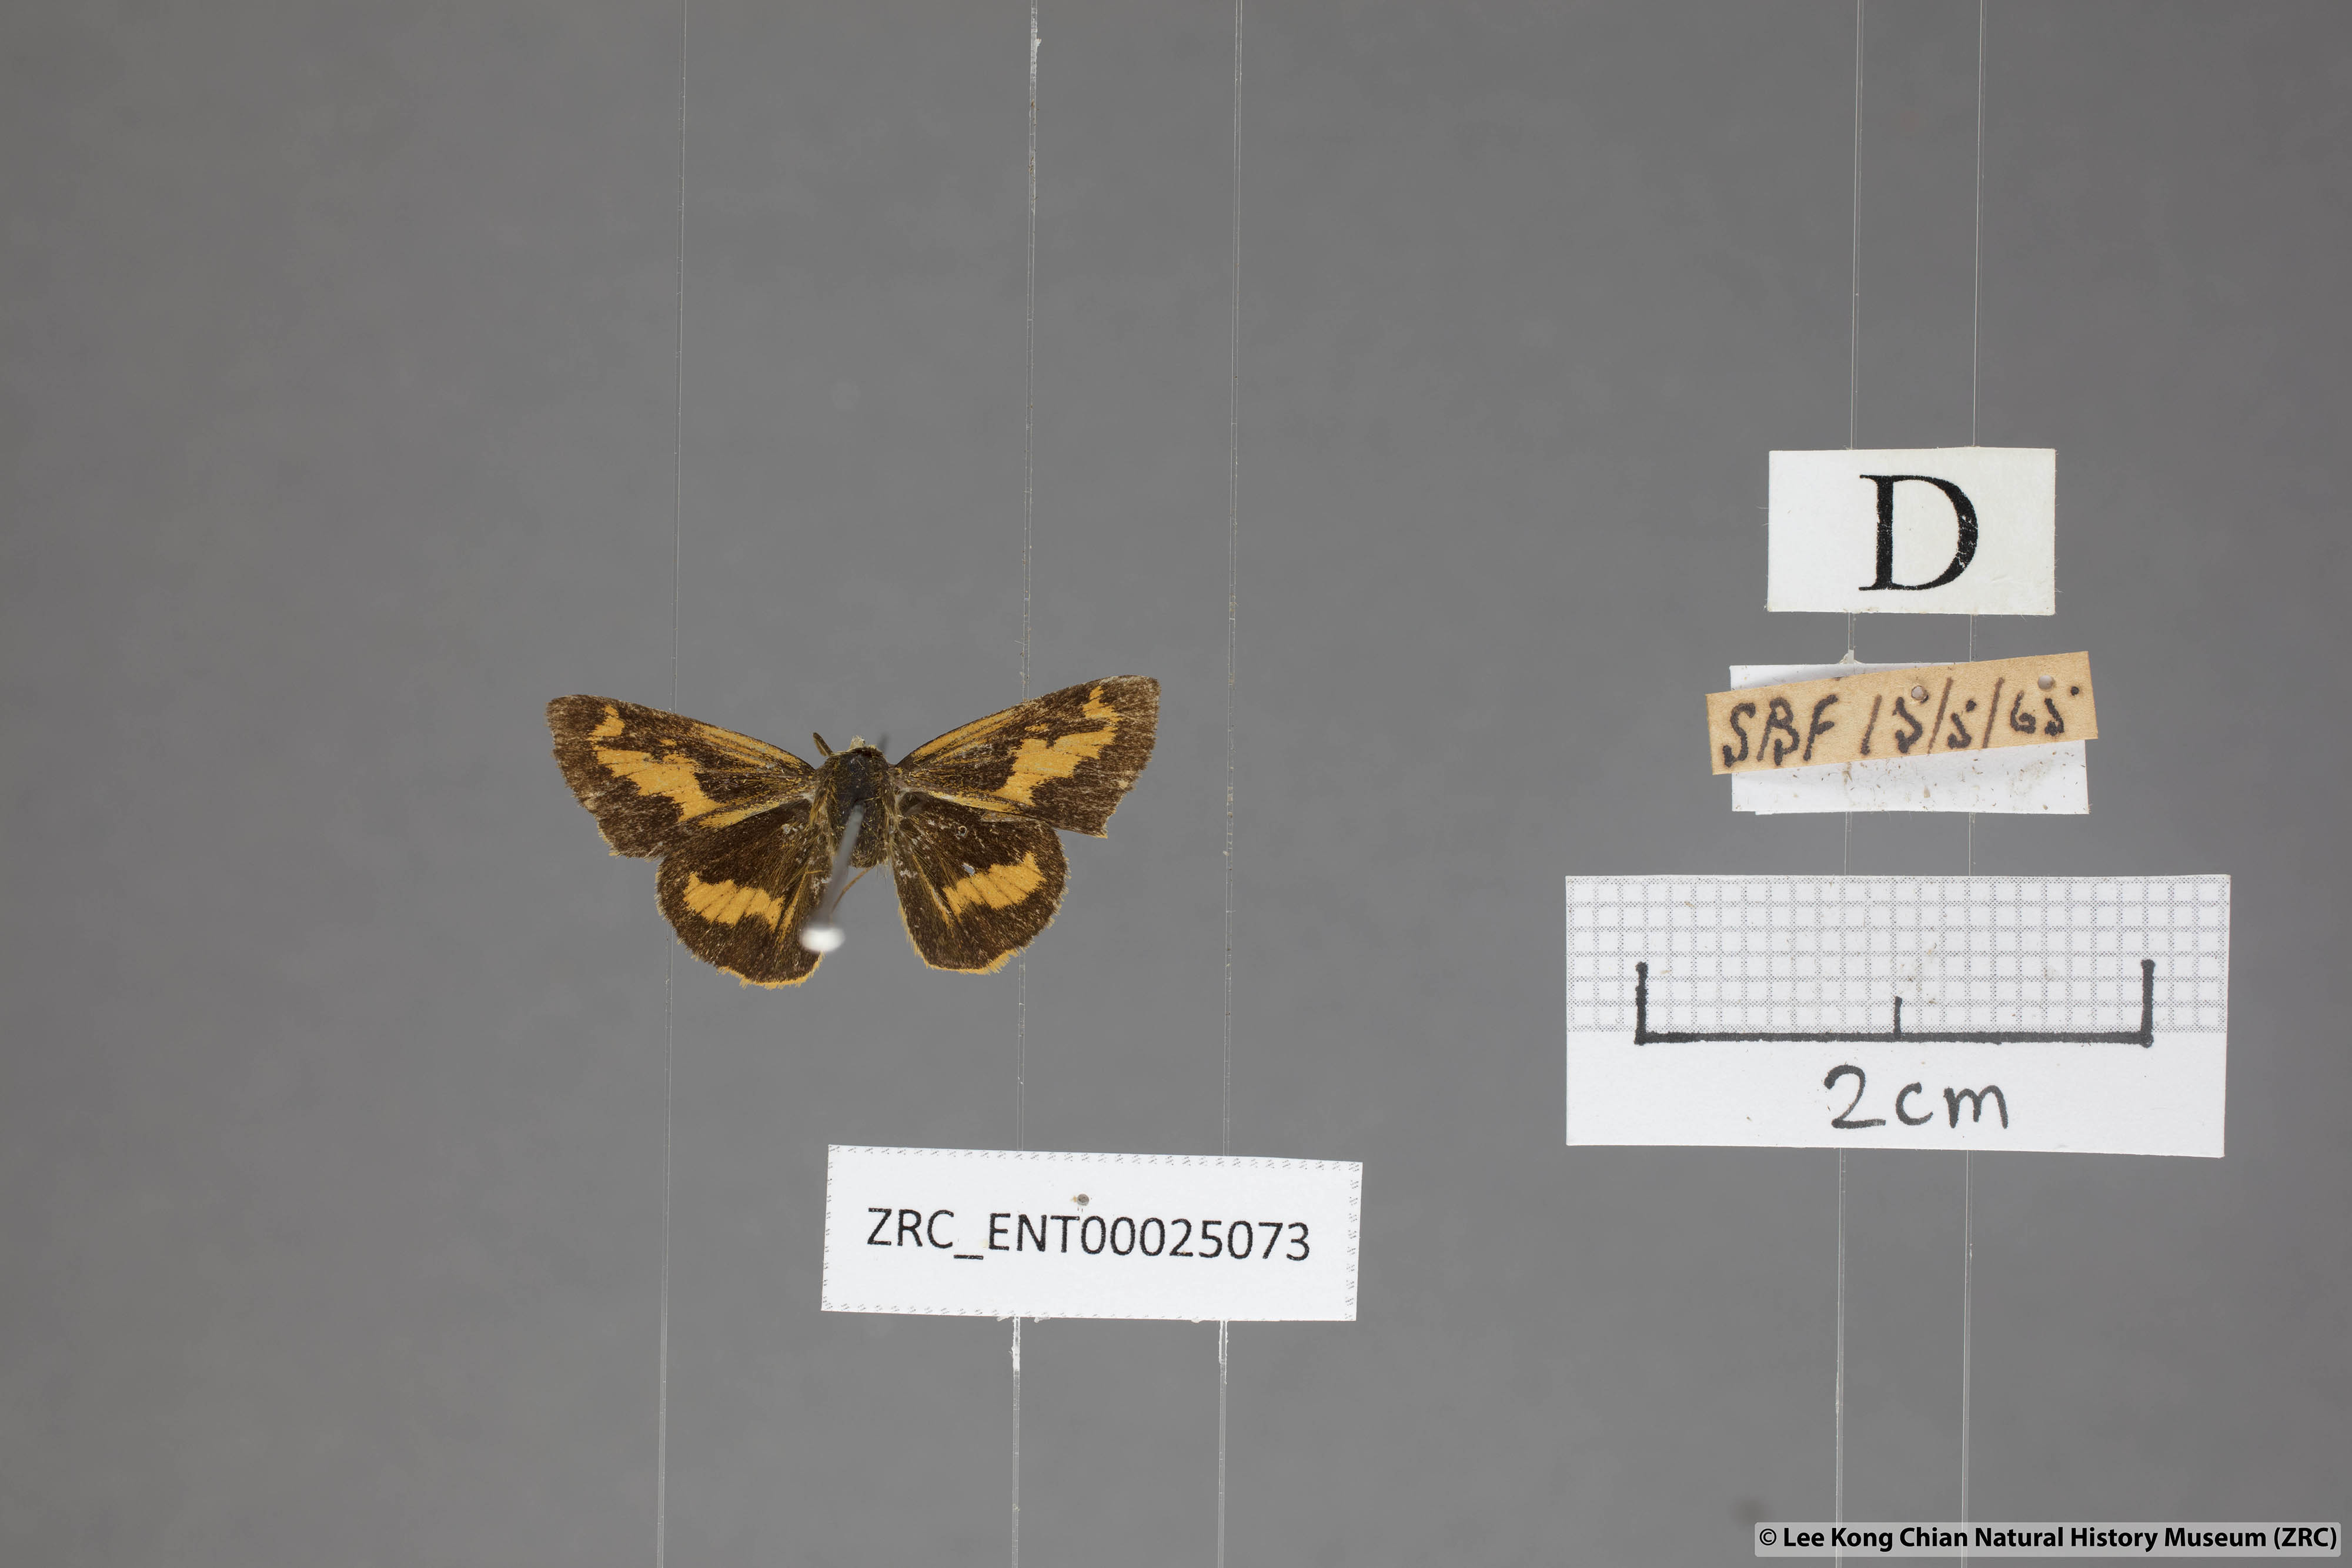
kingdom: Animalia
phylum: Arthropoda
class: Insecta
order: Lepidoptera
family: Hesperiidae
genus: Oriens
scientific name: Oriens gola
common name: Common dartlet
